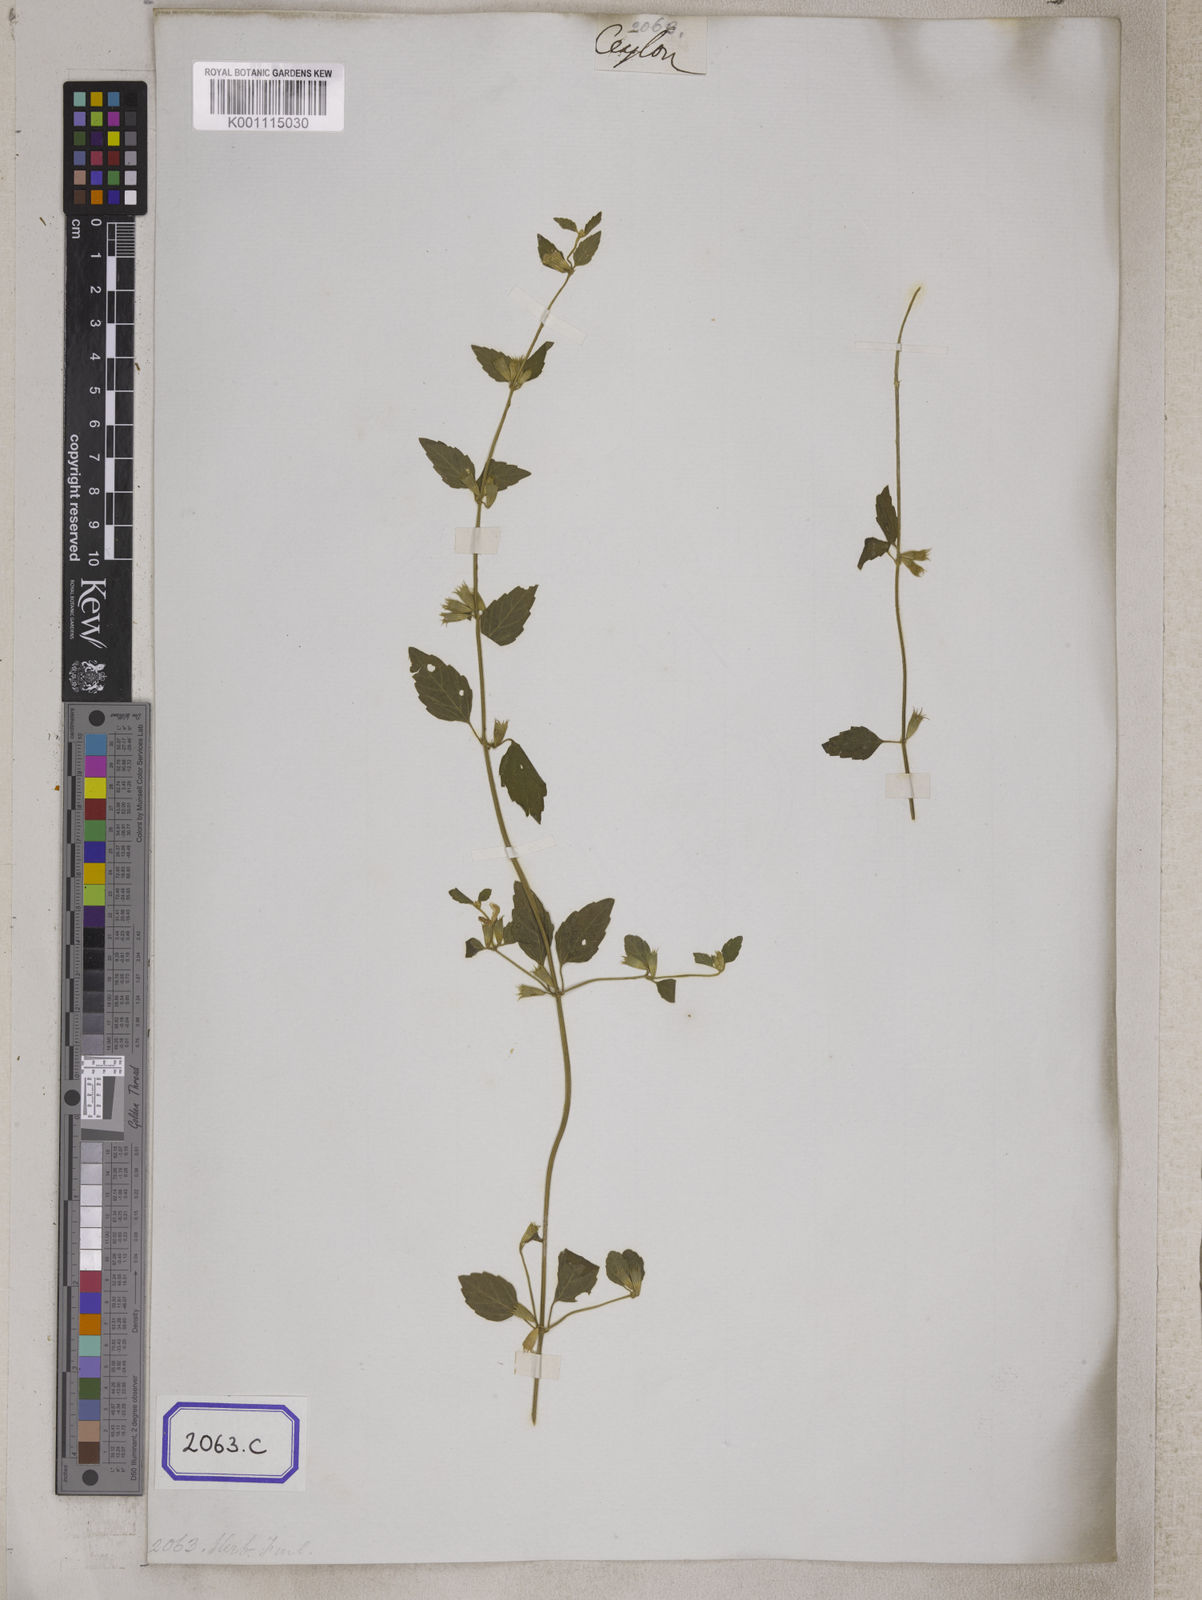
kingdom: Plantae
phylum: Tracheophyta
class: Magnoliopsida
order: Lamiales
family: Lamiaceae
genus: Leucas
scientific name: Leucas
